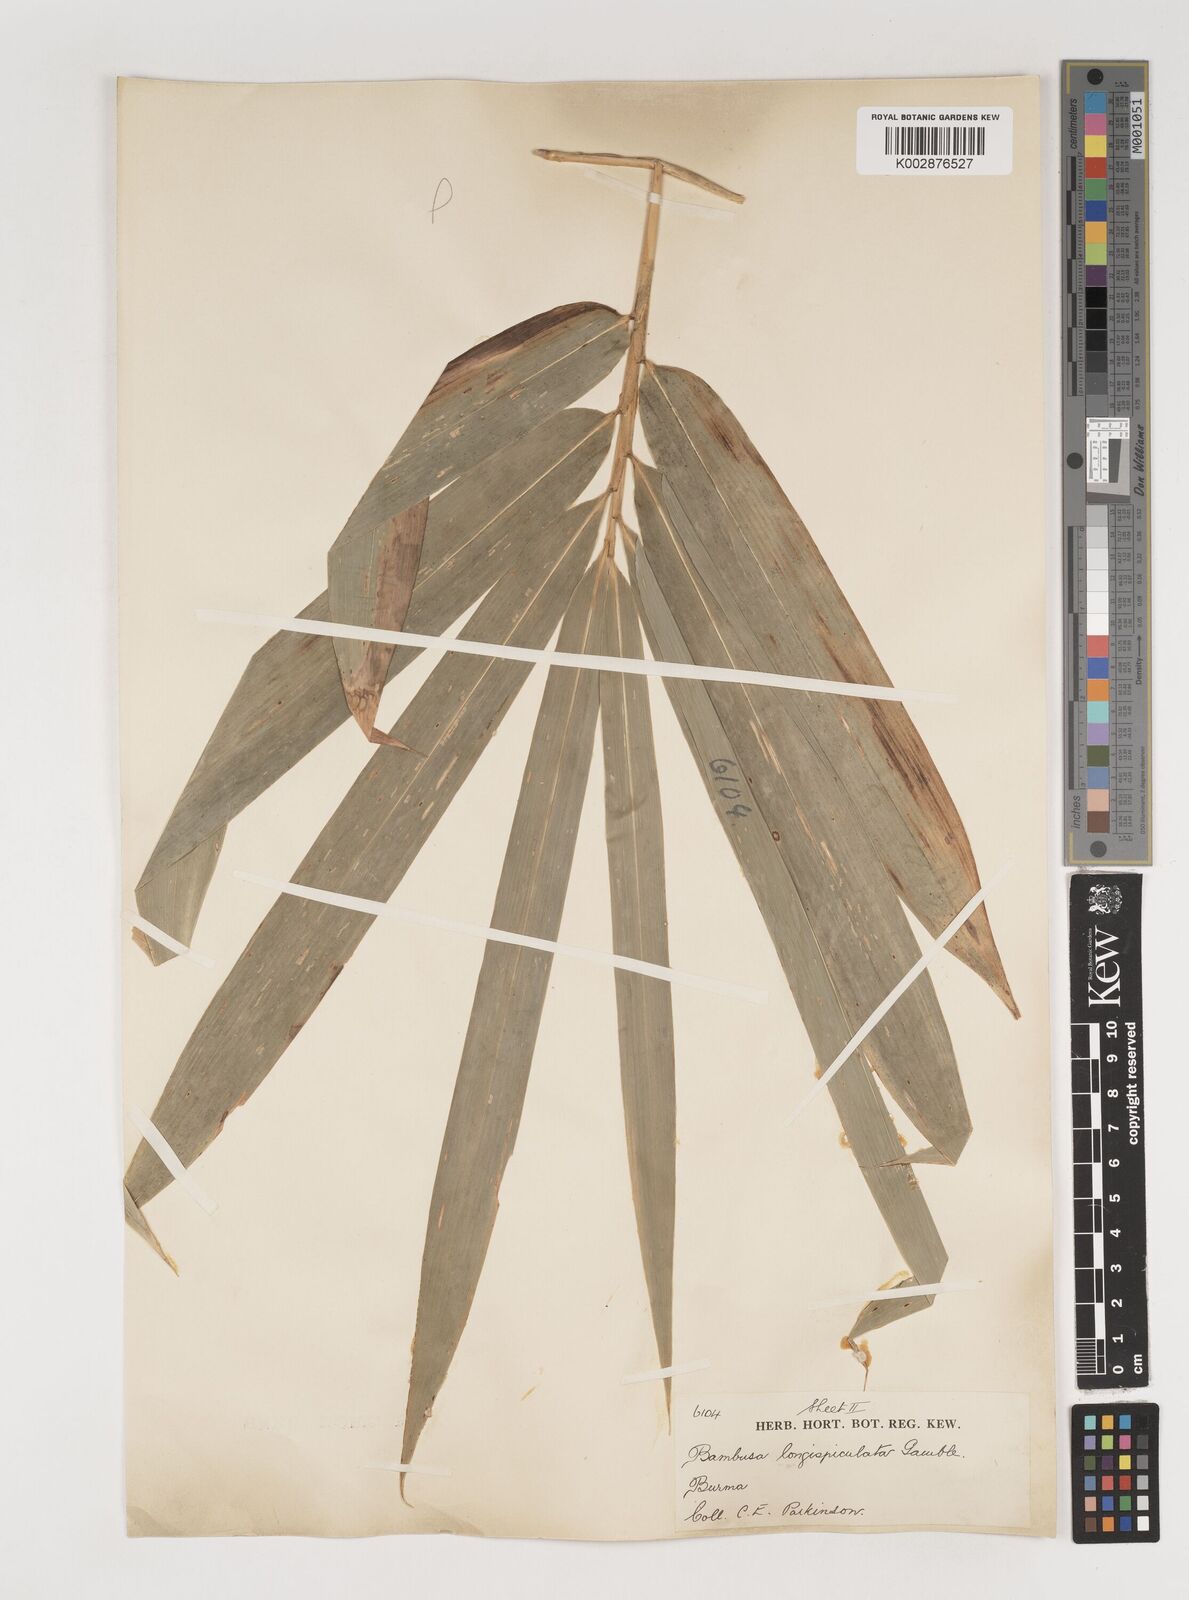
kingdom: Plantae
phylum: Tracheophyta
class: Liliopsida
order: Poales
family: Poaceae
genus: Bambusa
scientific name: Bambusa longispiculata
